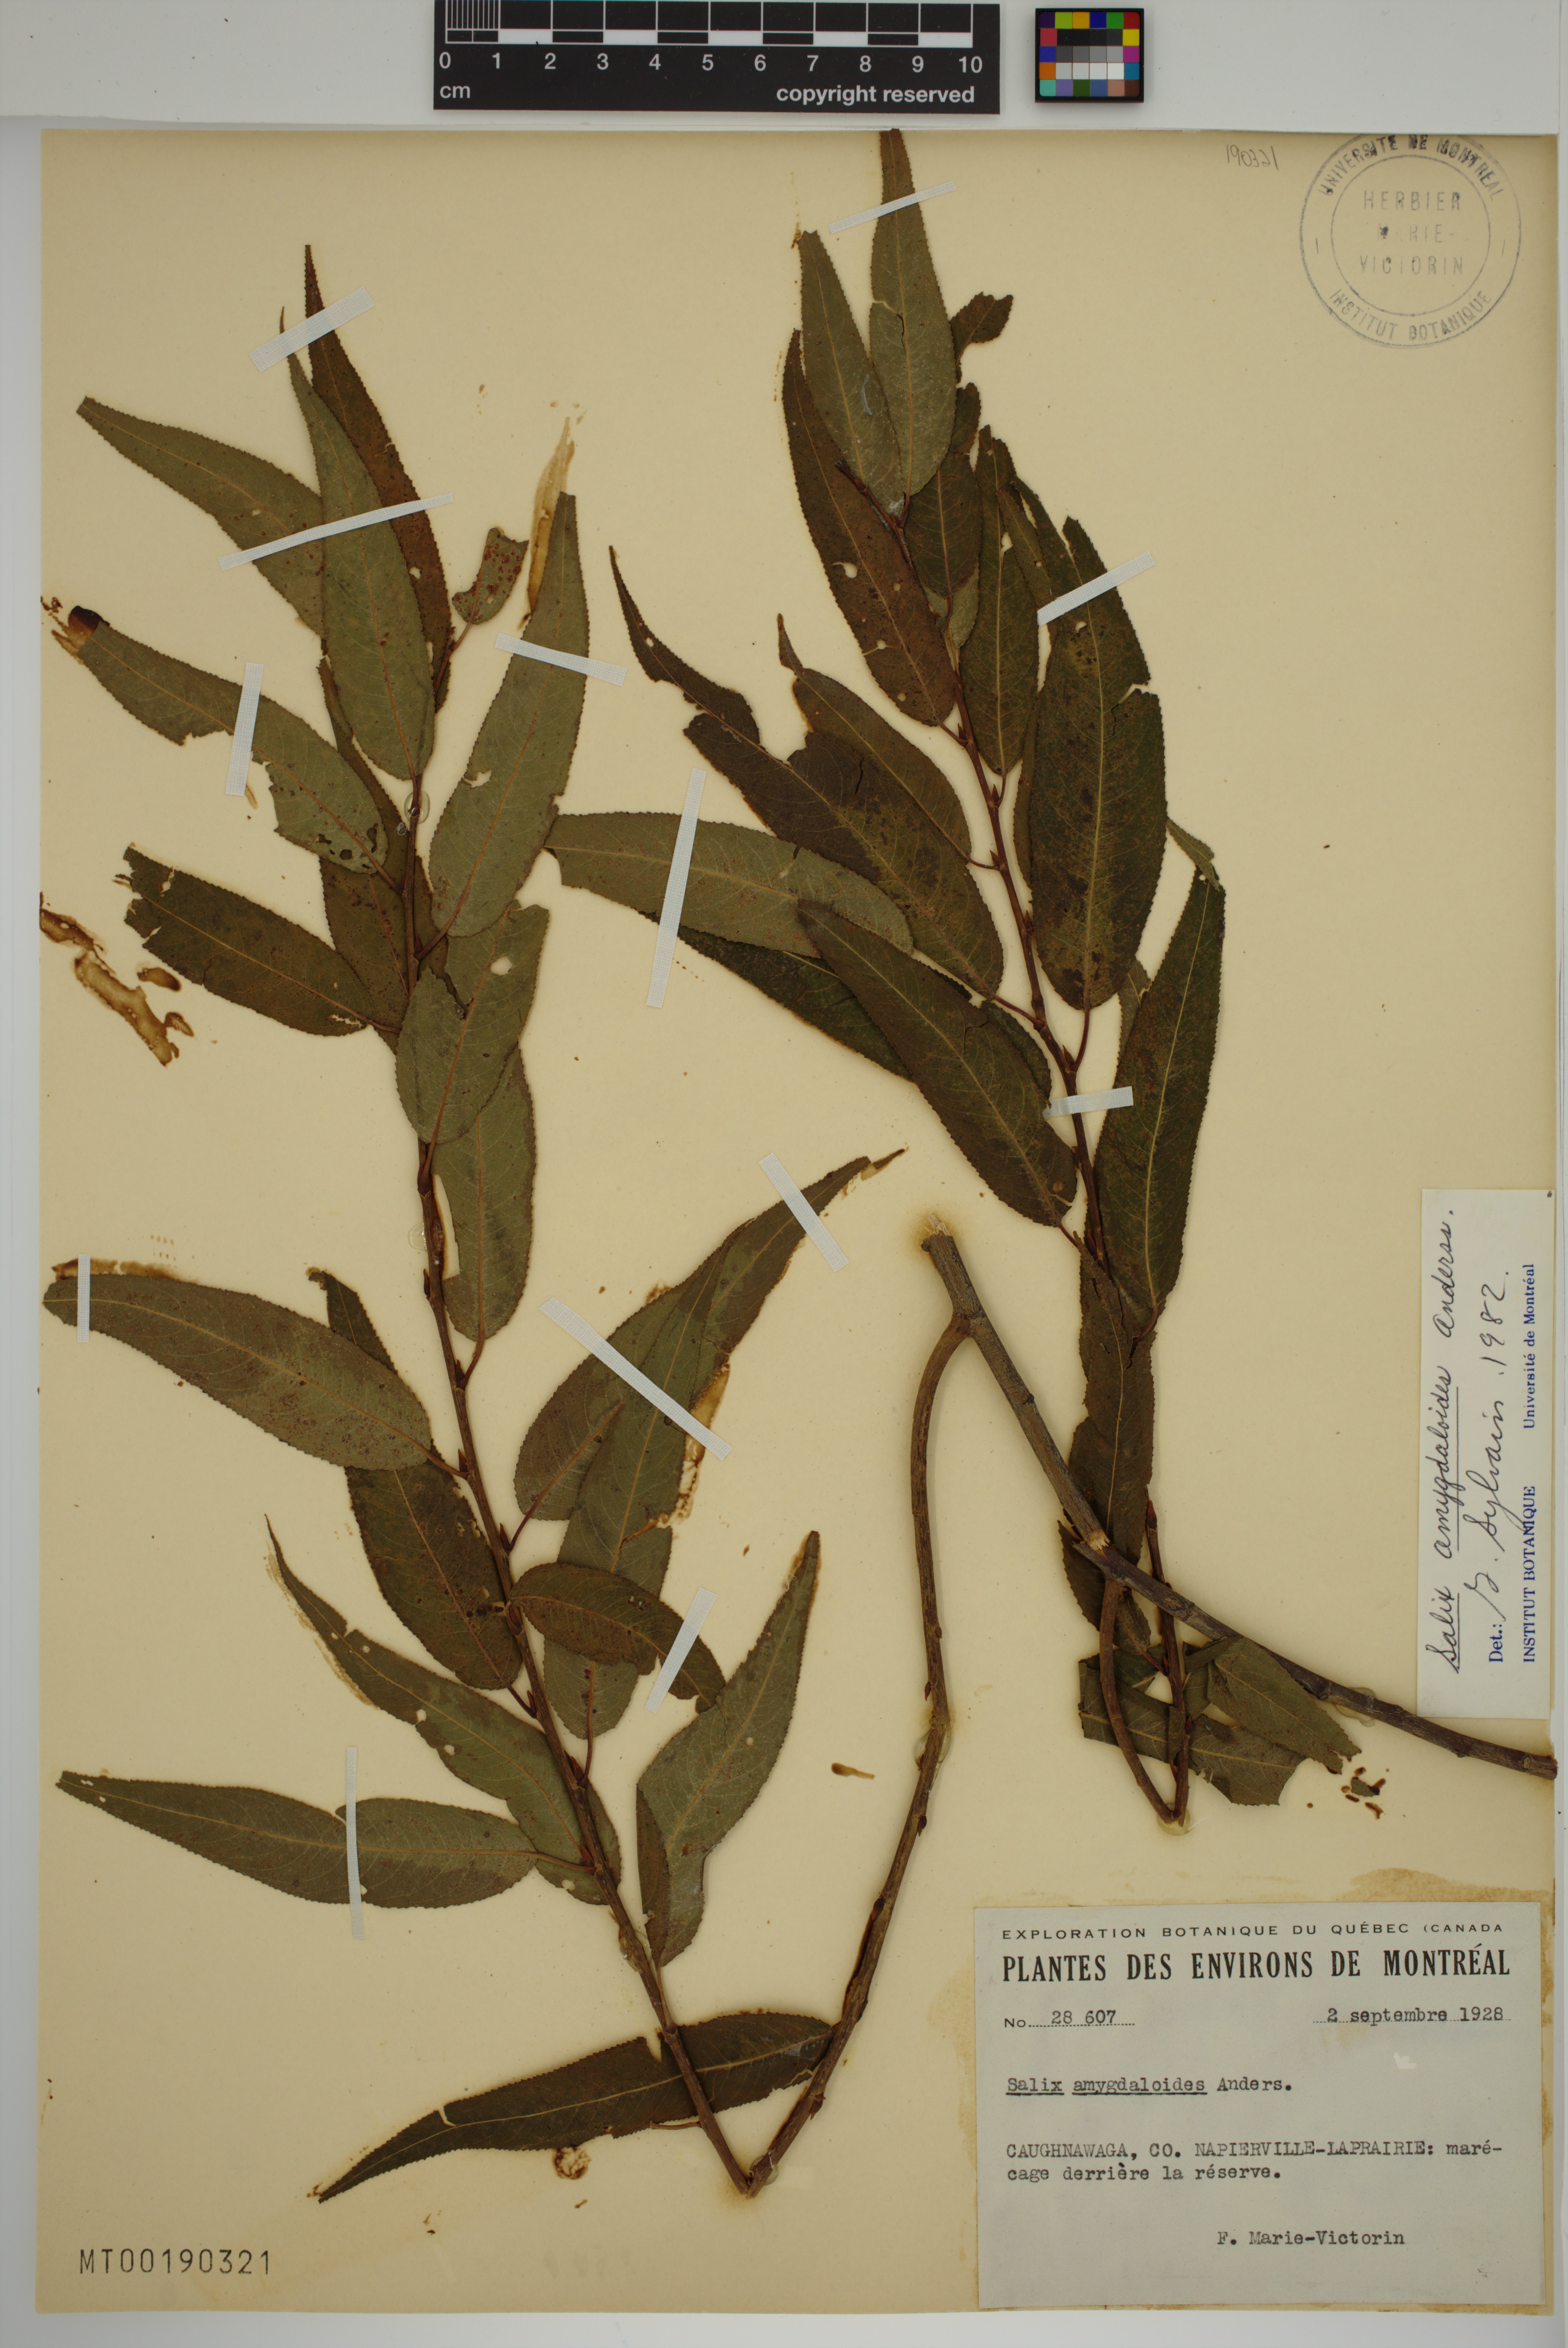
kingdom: Plantae
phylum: Tracheophyta
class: Magnoliopsida
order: Malpighiales
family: Salicaceae
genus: Salix
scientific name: Salix amygdaloides
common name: Peach leaf willow
